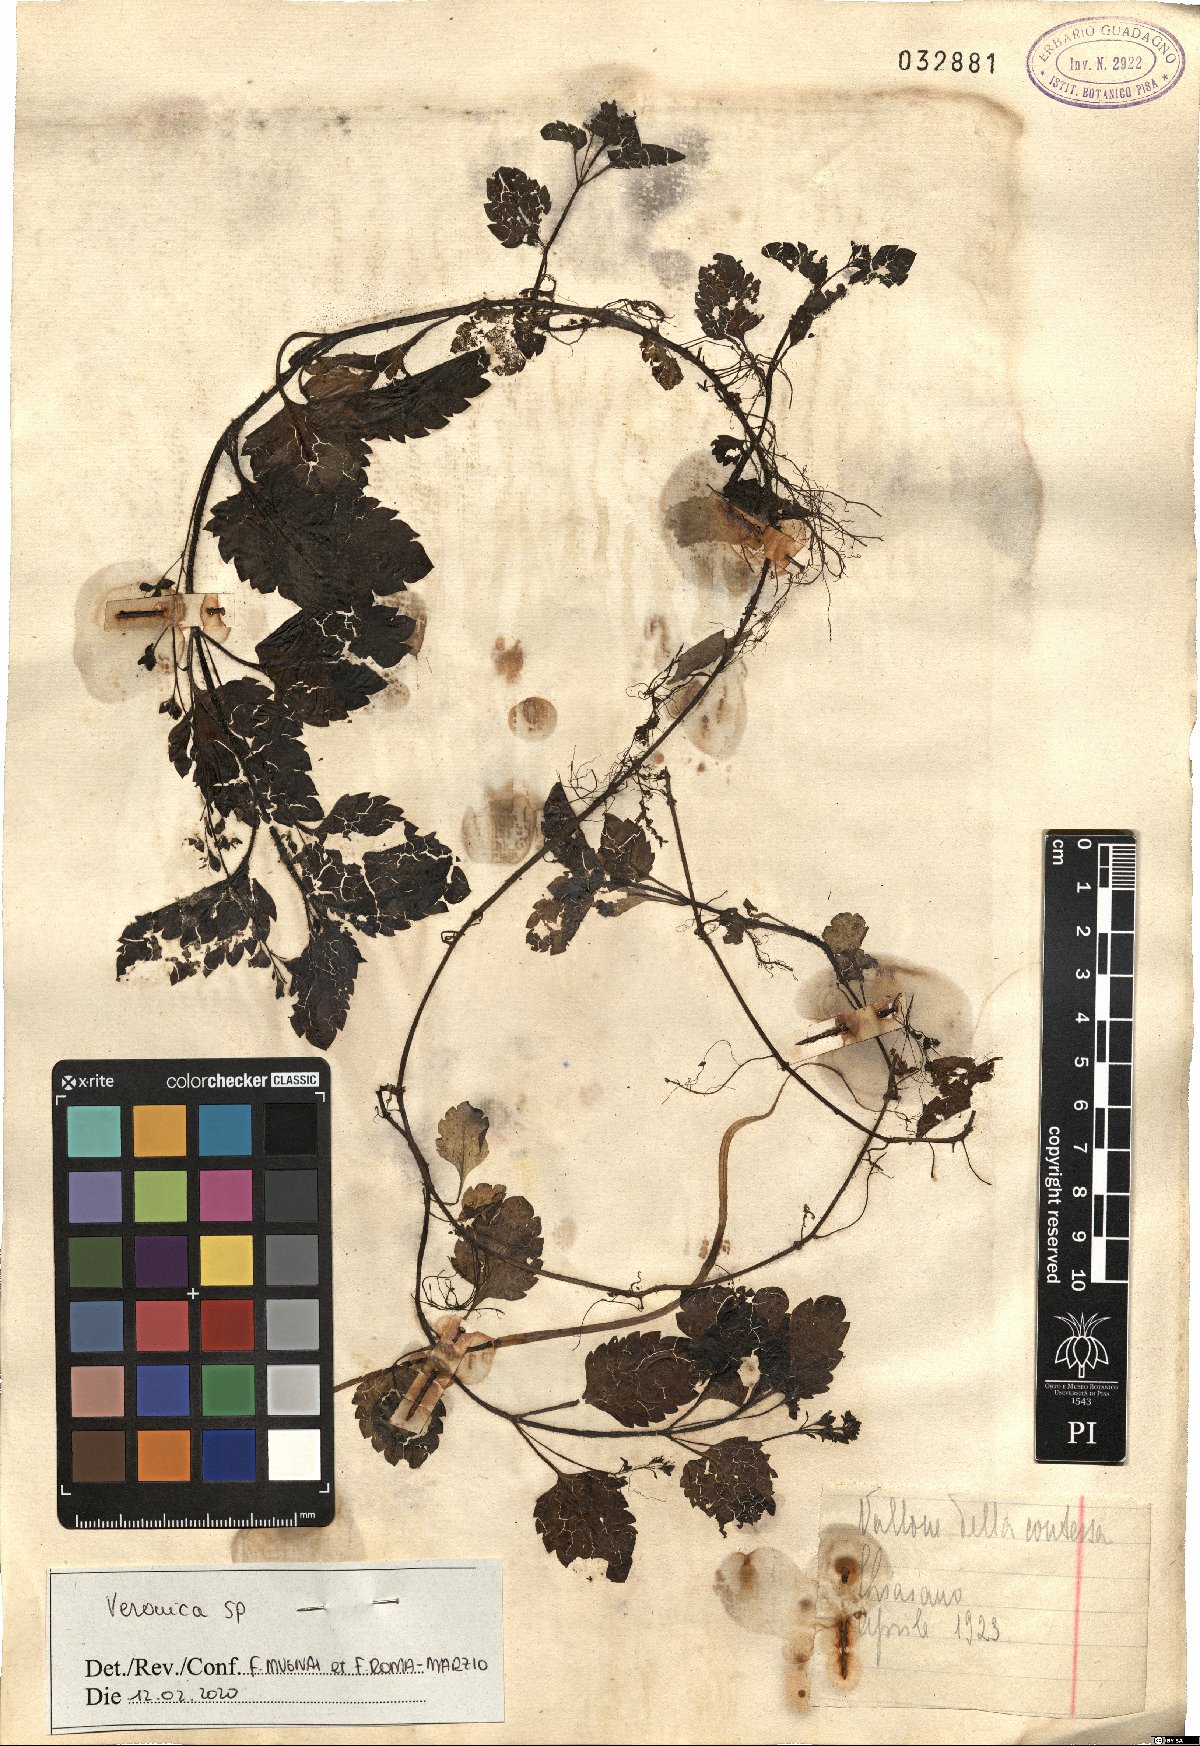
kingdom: Plantae
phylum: Tracheophyta
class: Magnoliopsida
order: Lamiales
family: Plantaginaceae
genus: Veronica
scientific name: Veronica
